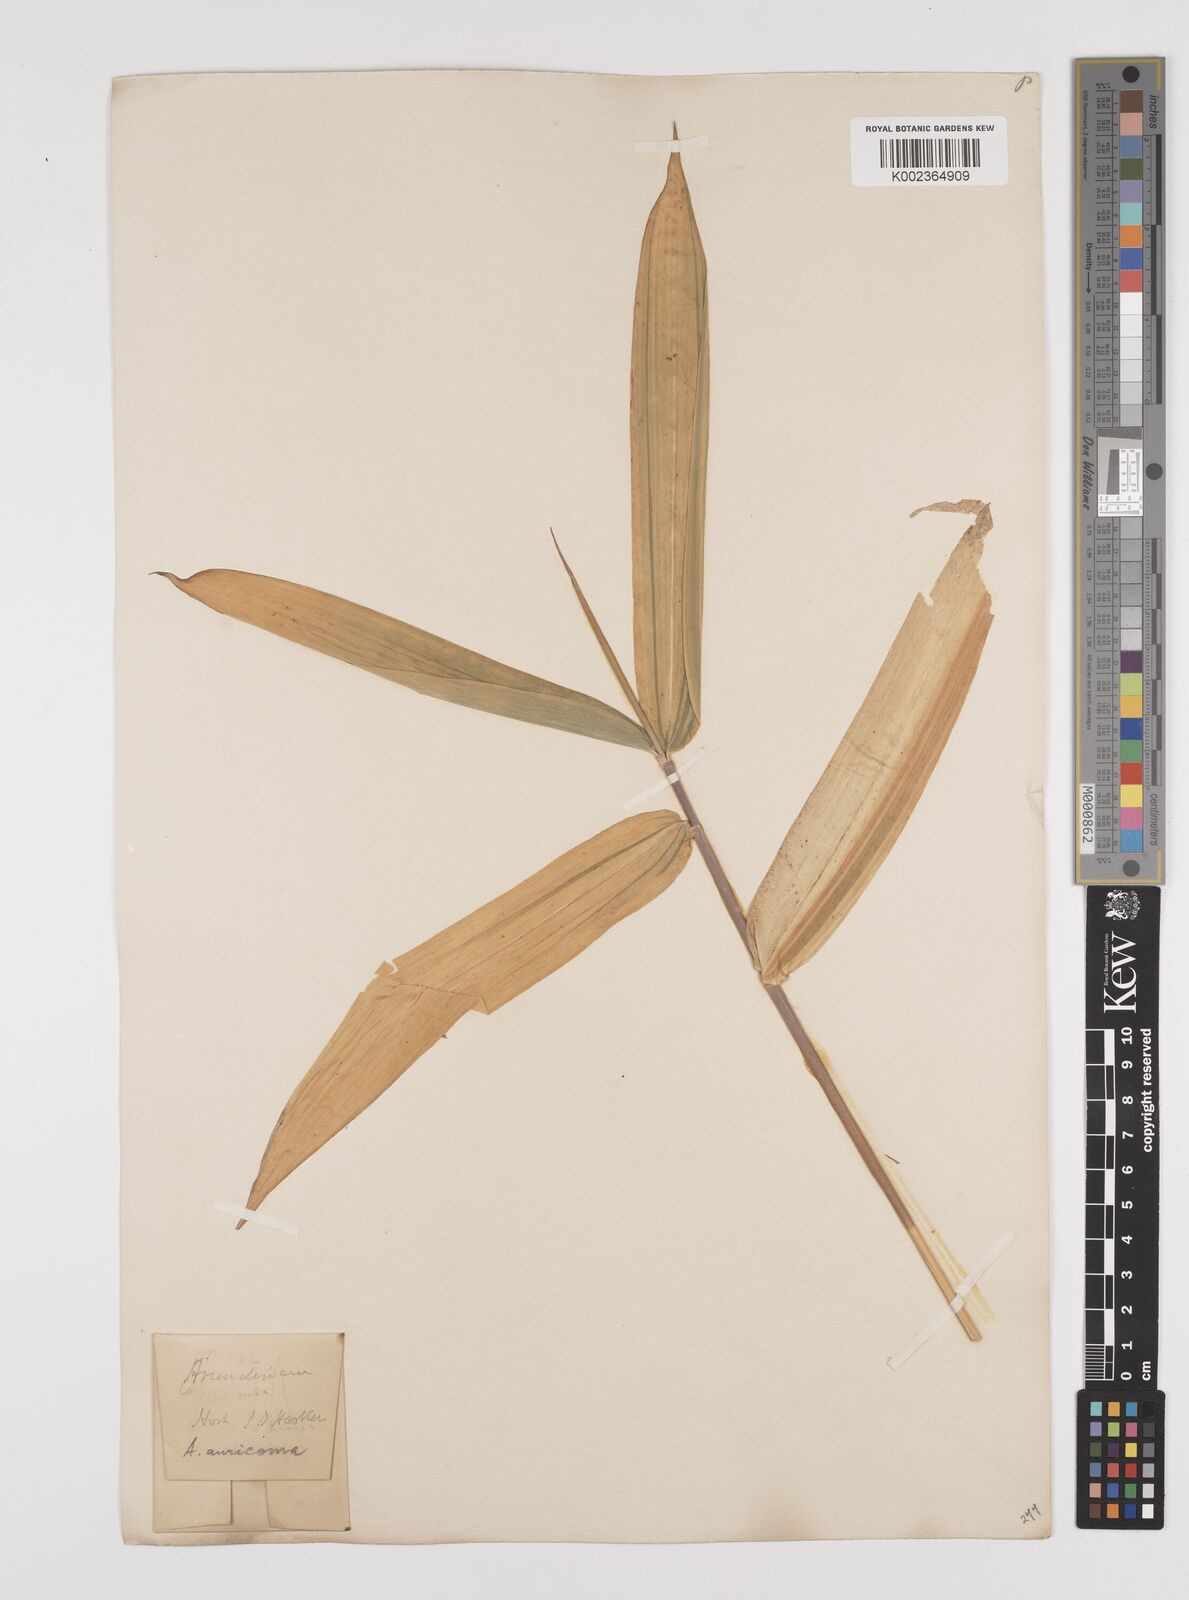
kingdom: Plantae
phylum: Tracheophyta
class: Liliopsida
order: Poales
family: Poaceae
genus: Pleioblastus
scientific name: Pleioblastus viridistriatus
